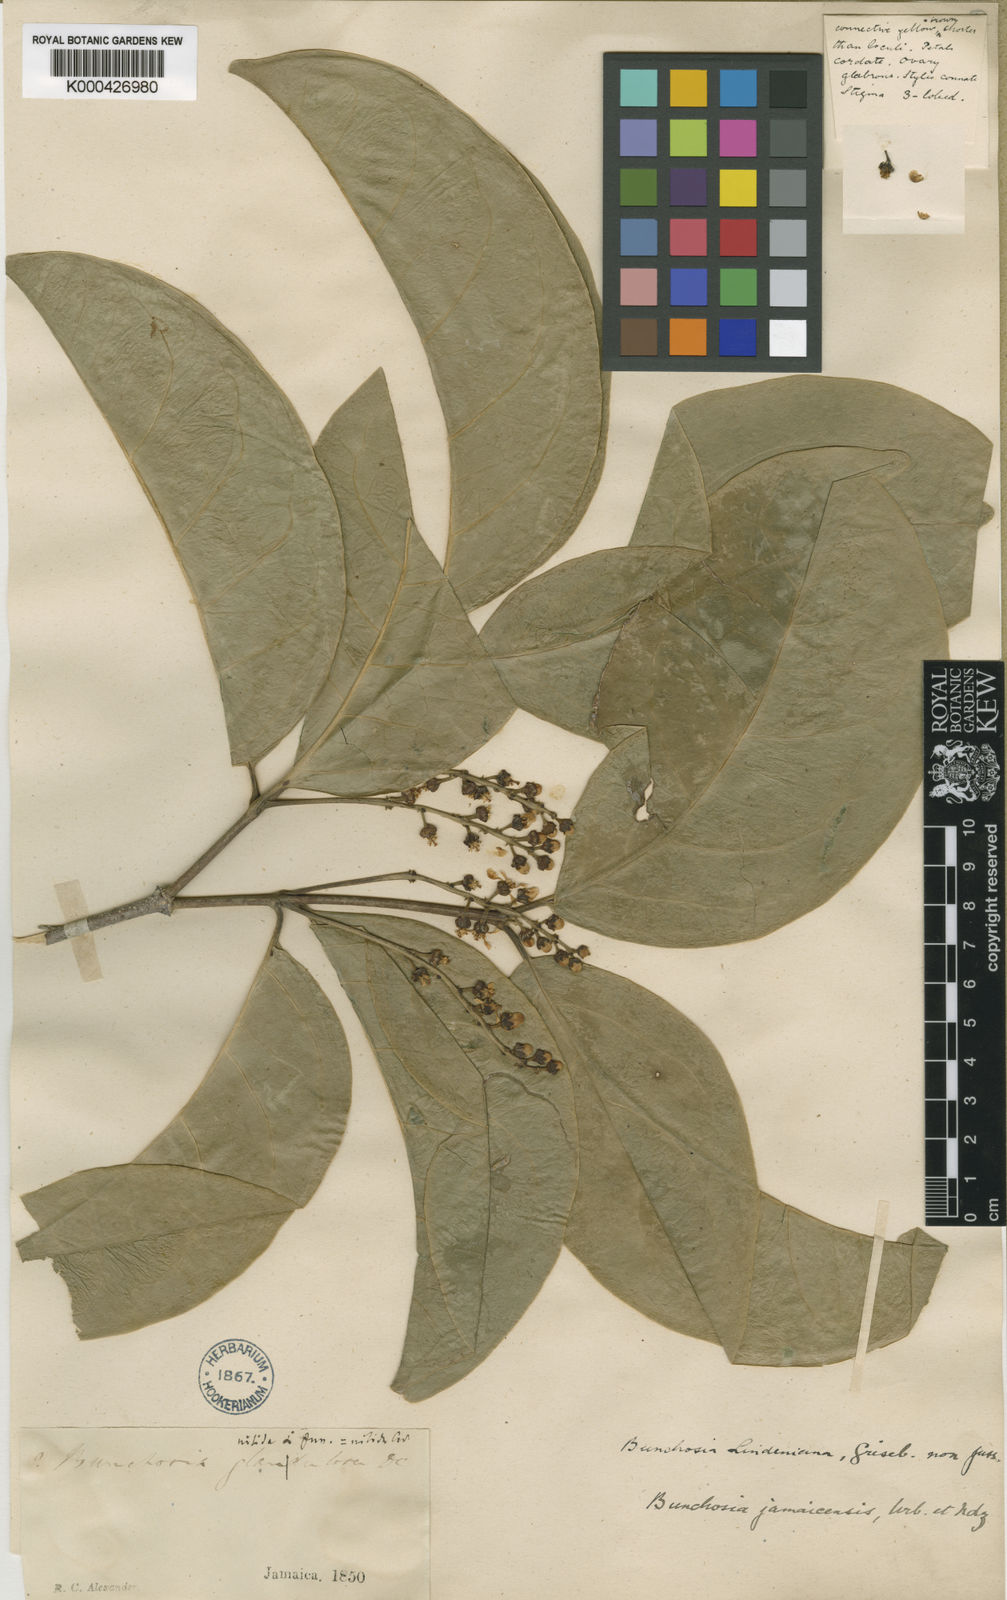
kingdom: Plantae
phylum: Tracheophyta
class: Magnoliopsida
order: Malpighiales
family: Malpighiaceae
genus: Bunchosia
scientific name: Bunchosia jamaicensis
